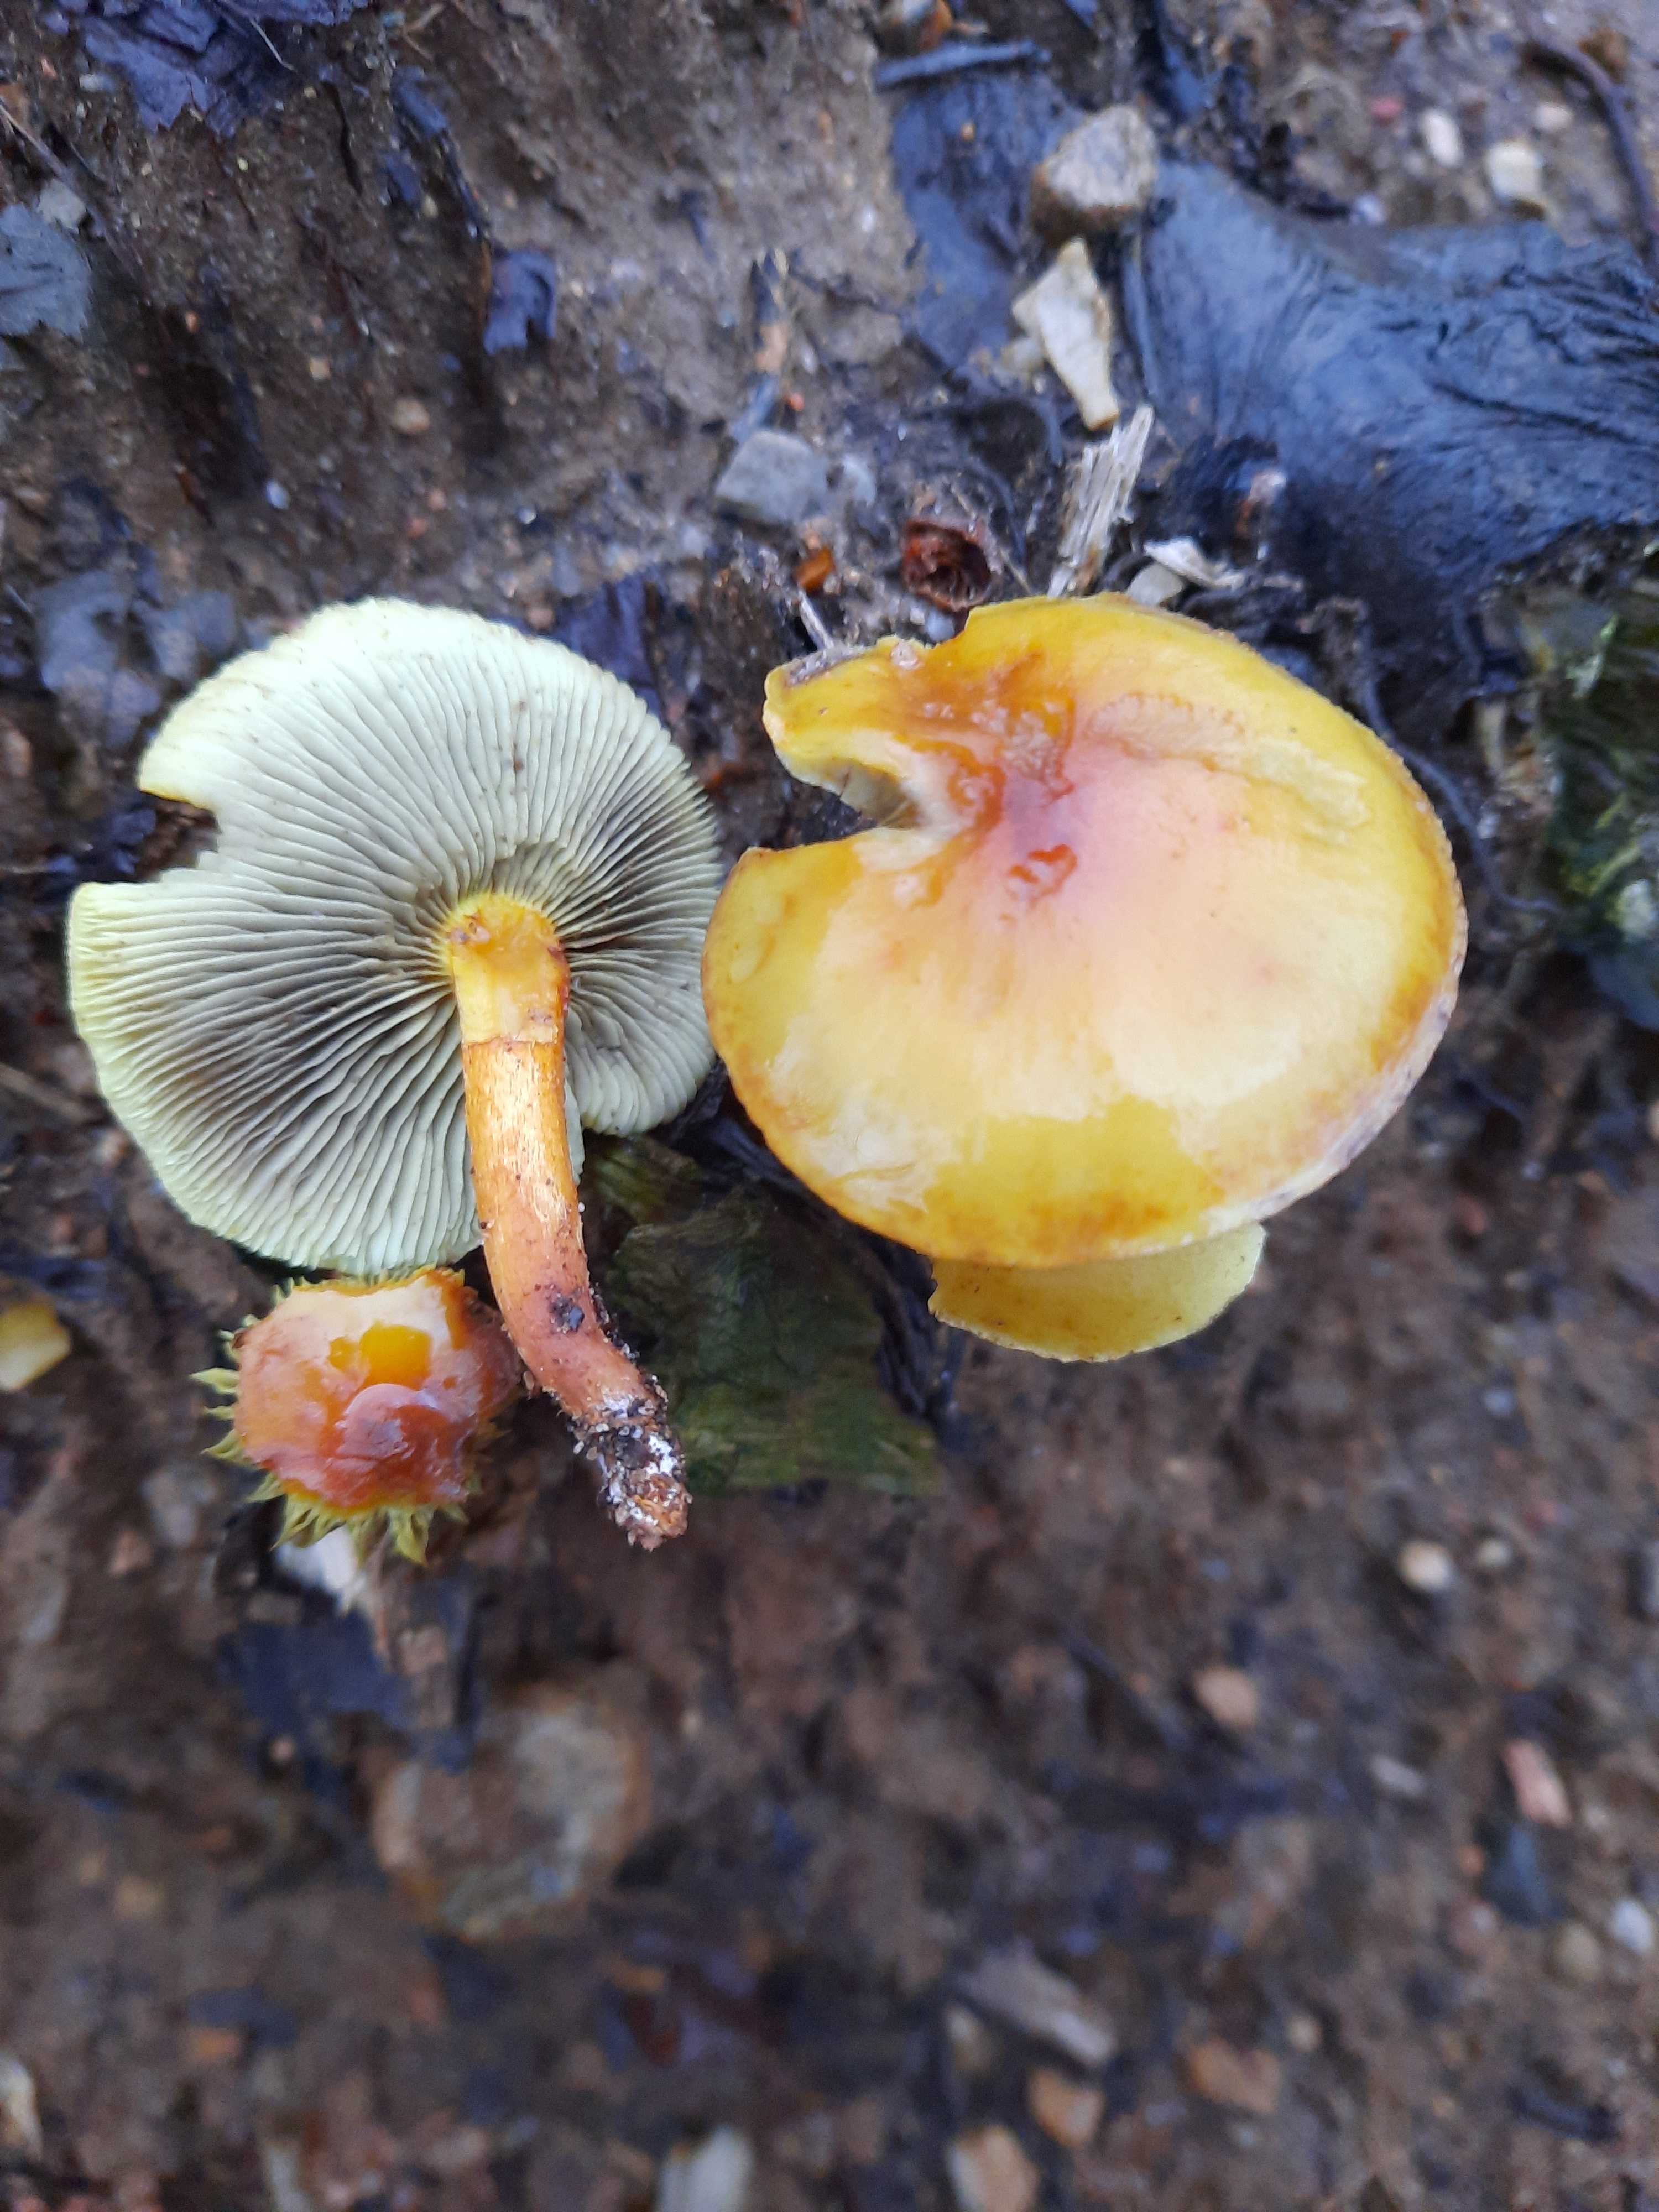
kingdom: Fungi
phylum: Basidiomycota
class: Agaricomycetes
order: Agaricales
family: Strophariaceae
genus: Hypholoma
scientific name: Hypholoma fasciculare
